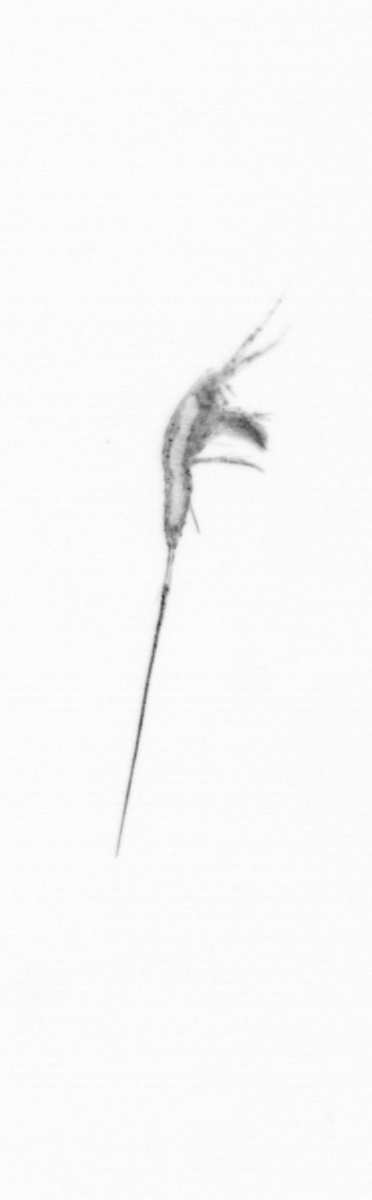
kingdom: Animalia
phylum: Arthropoda
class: Copepoda
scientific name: Copepoda
